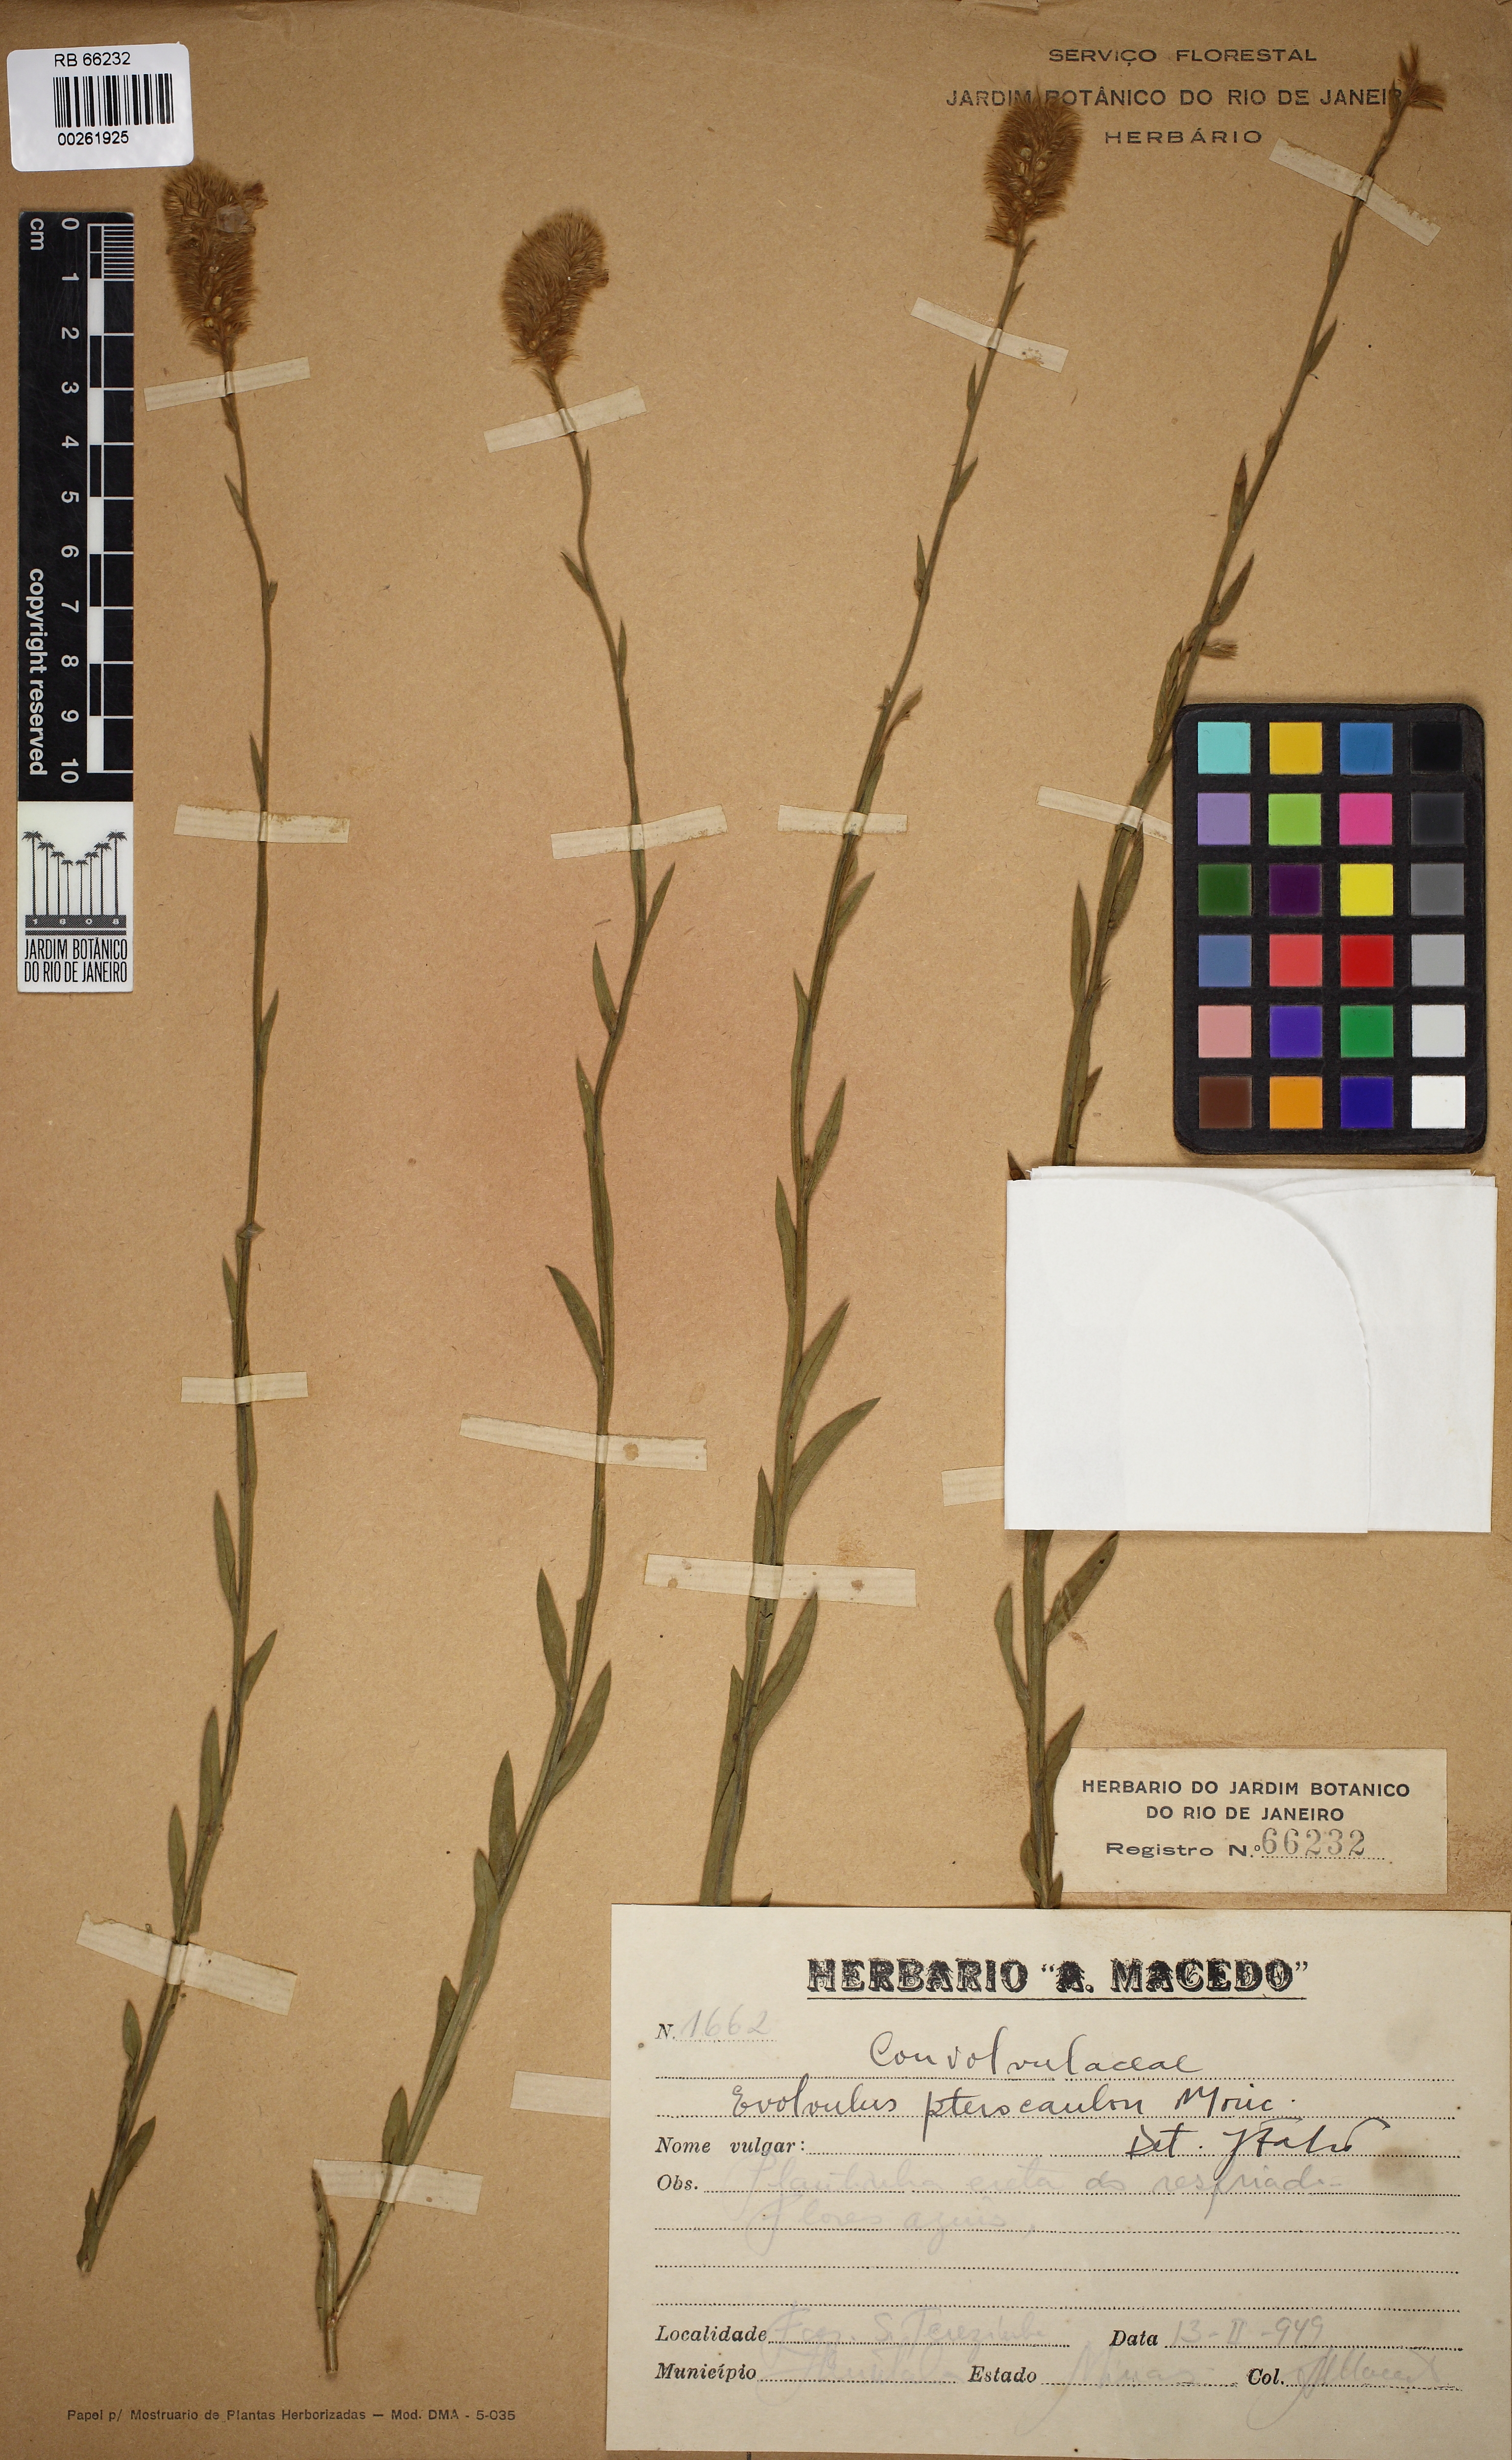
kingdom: Plantae
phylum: Tracheophyta
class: Magnoliopsida
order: Solanales
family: Convolvulaceae
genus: Evolvulus
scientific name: Evolvulus pterocaulon
